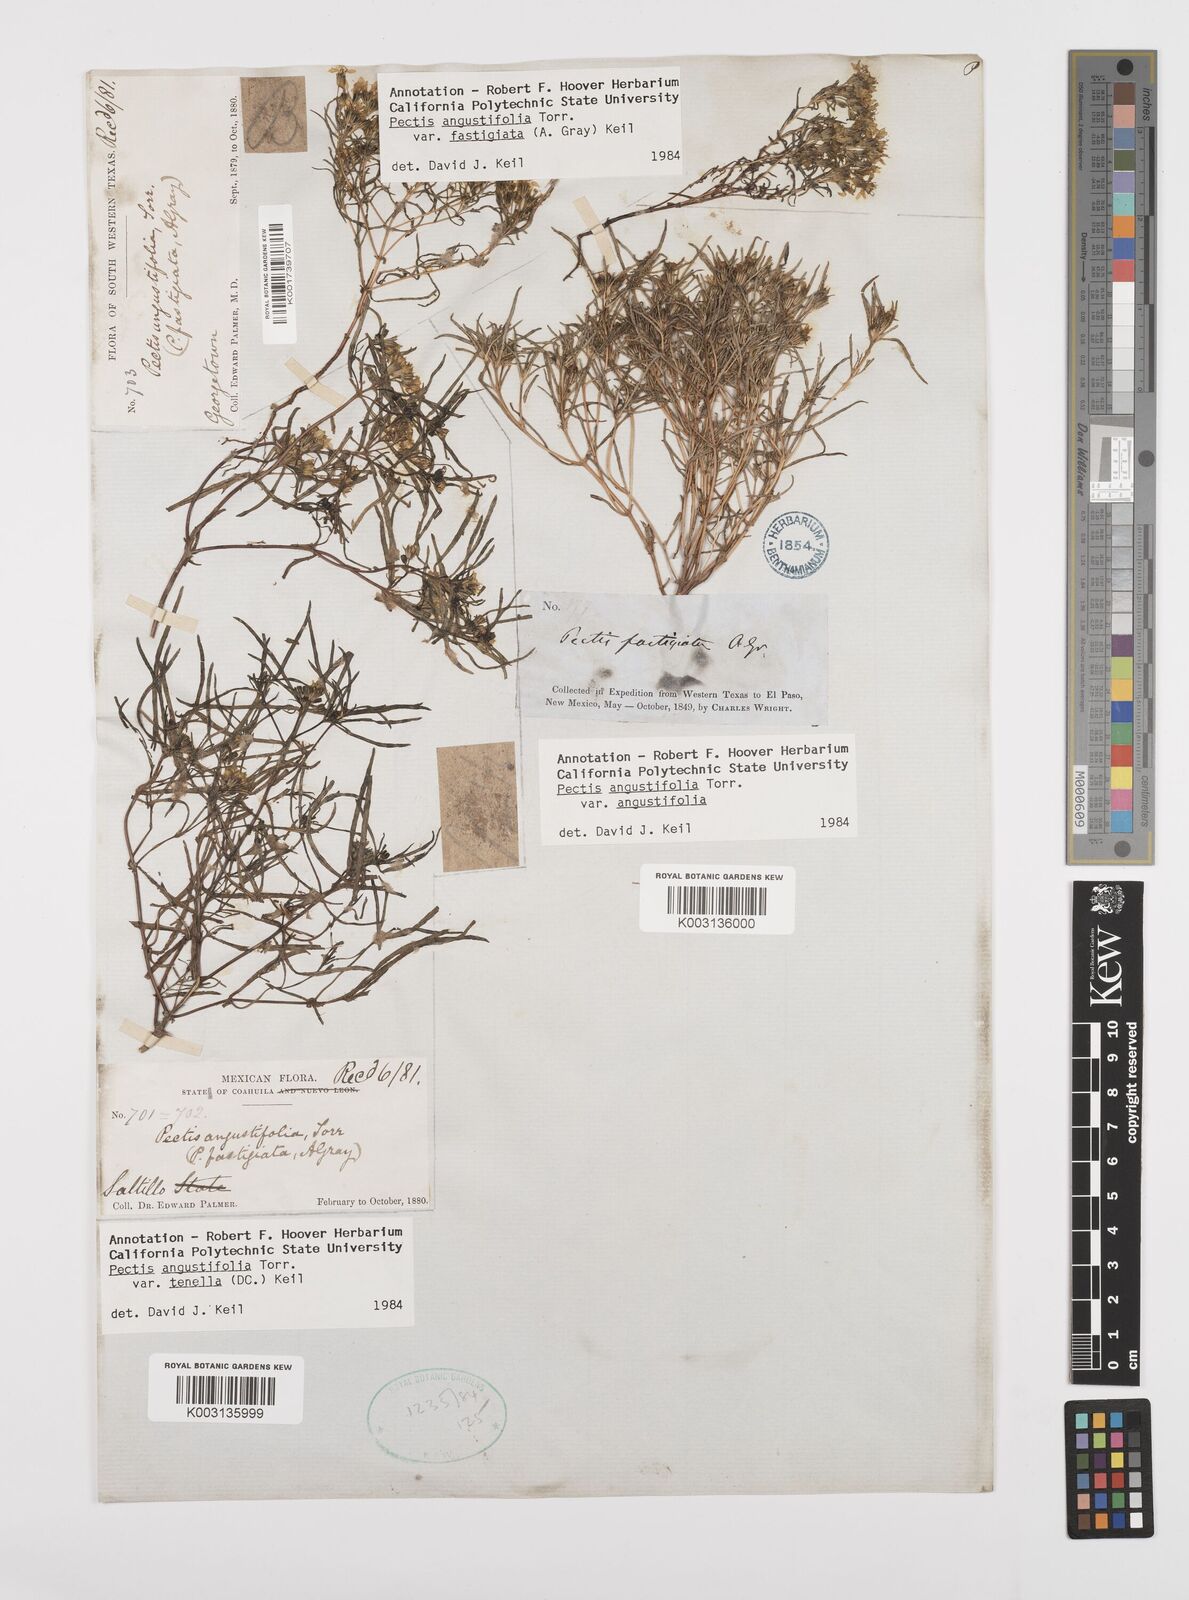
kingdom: Plantae
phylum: Tracheophyta
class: Magnoliopsida
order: Asterales
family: Asteraceae
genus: Pectis
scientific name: Pectis angustifolia
